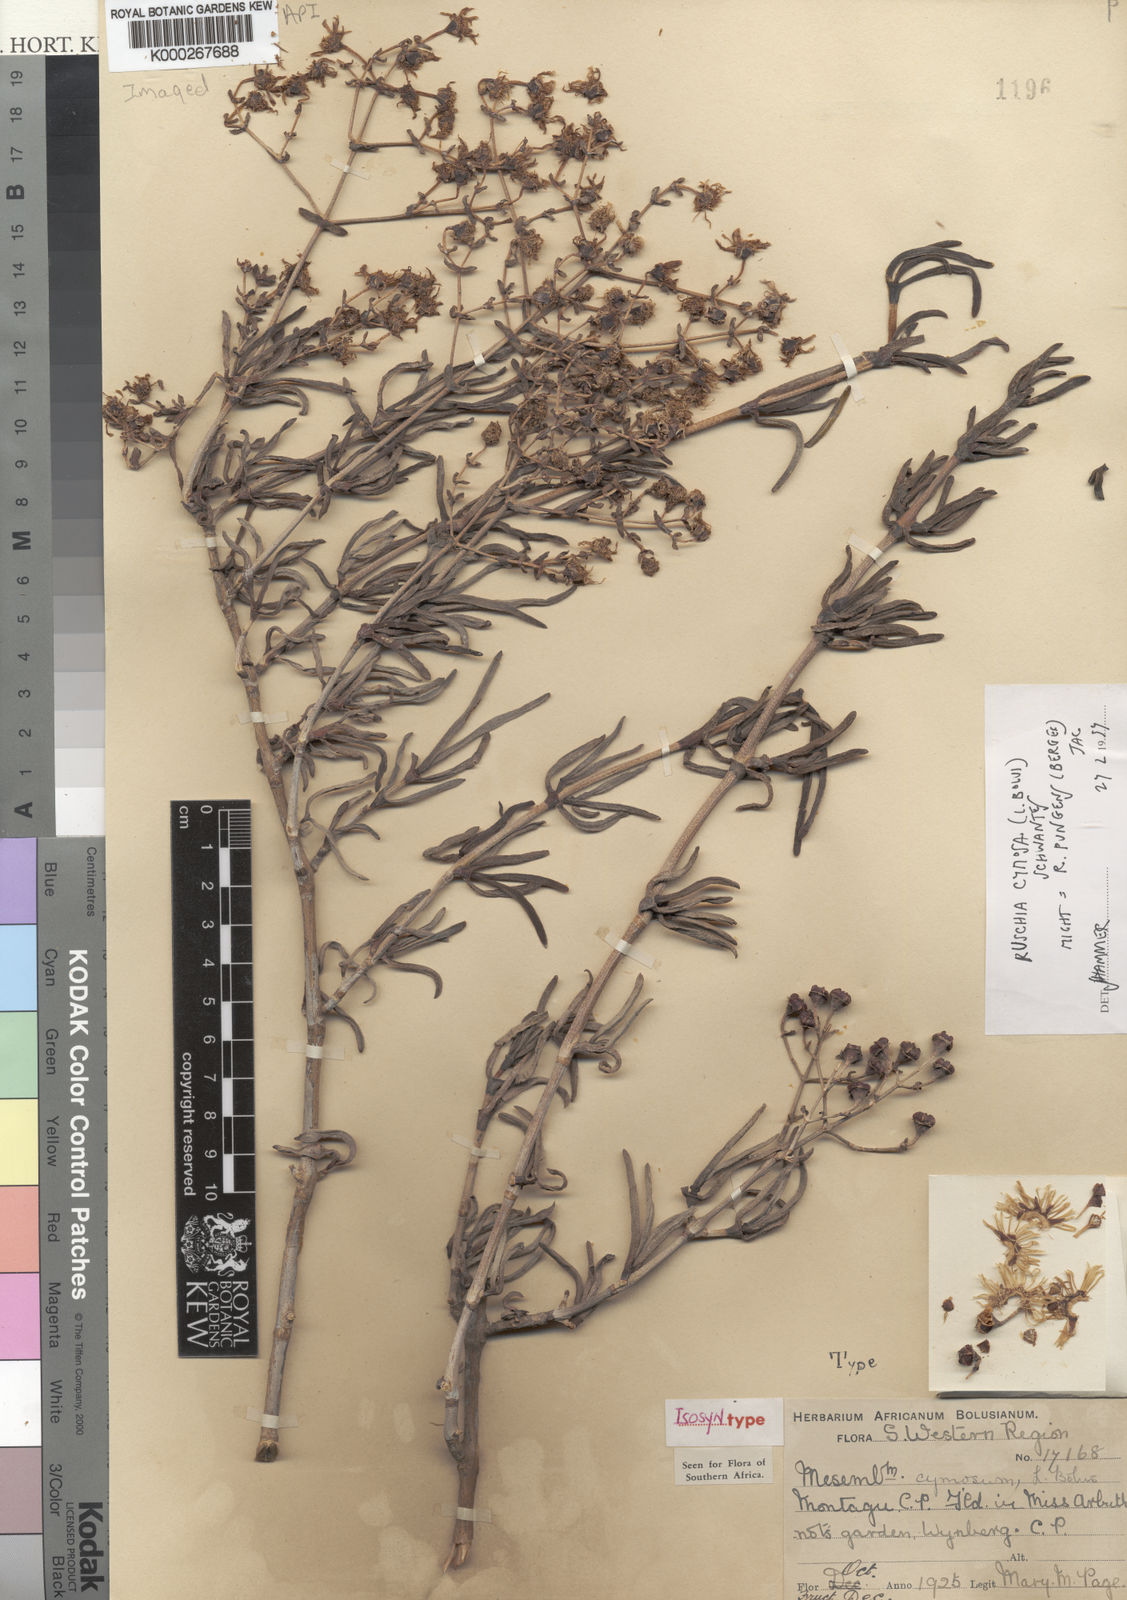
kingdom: Plantae
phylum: Tracheophyta
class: Magnoliopsida
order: Caryophyllales
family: Aizoaceae
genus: Ruschia
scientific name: Ruschia cymosa
